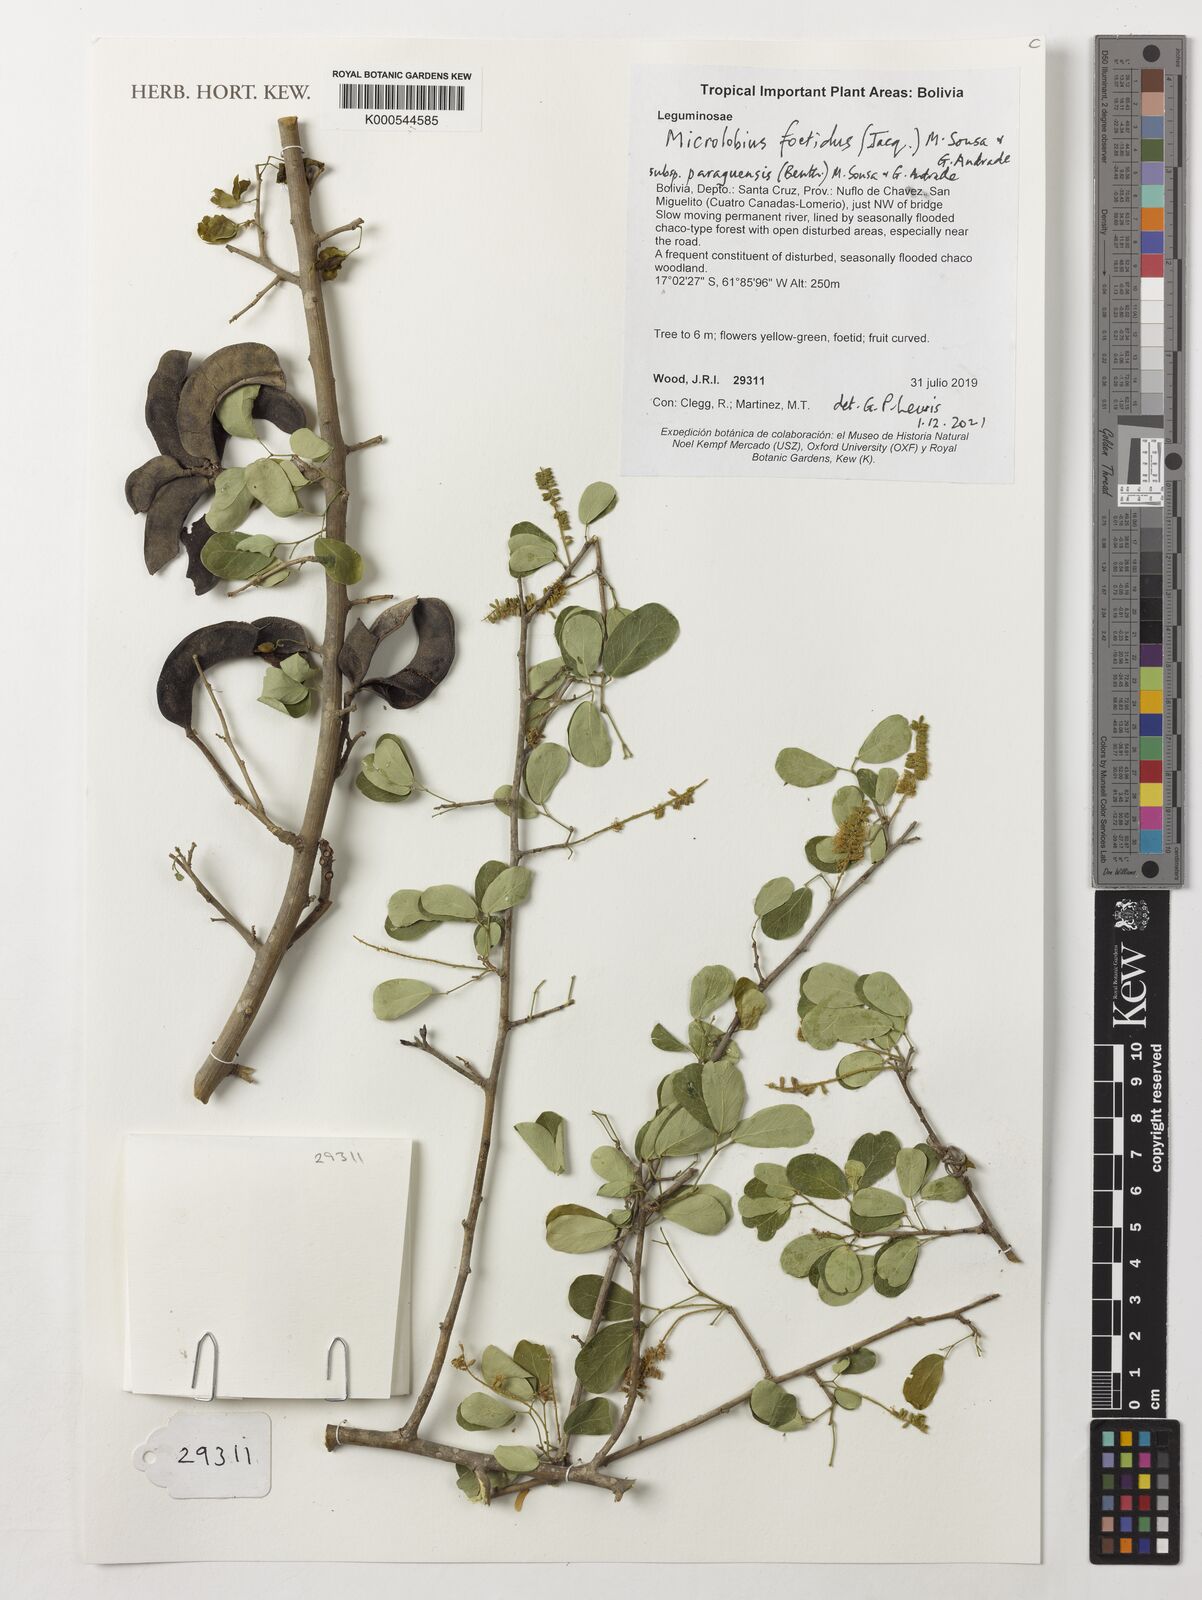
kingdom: Plantae
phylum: Tracheophyta
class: Magnoliopsida
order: Fabales
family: Fabaceae
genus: Microlobius
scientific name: Microlobius foetidus
